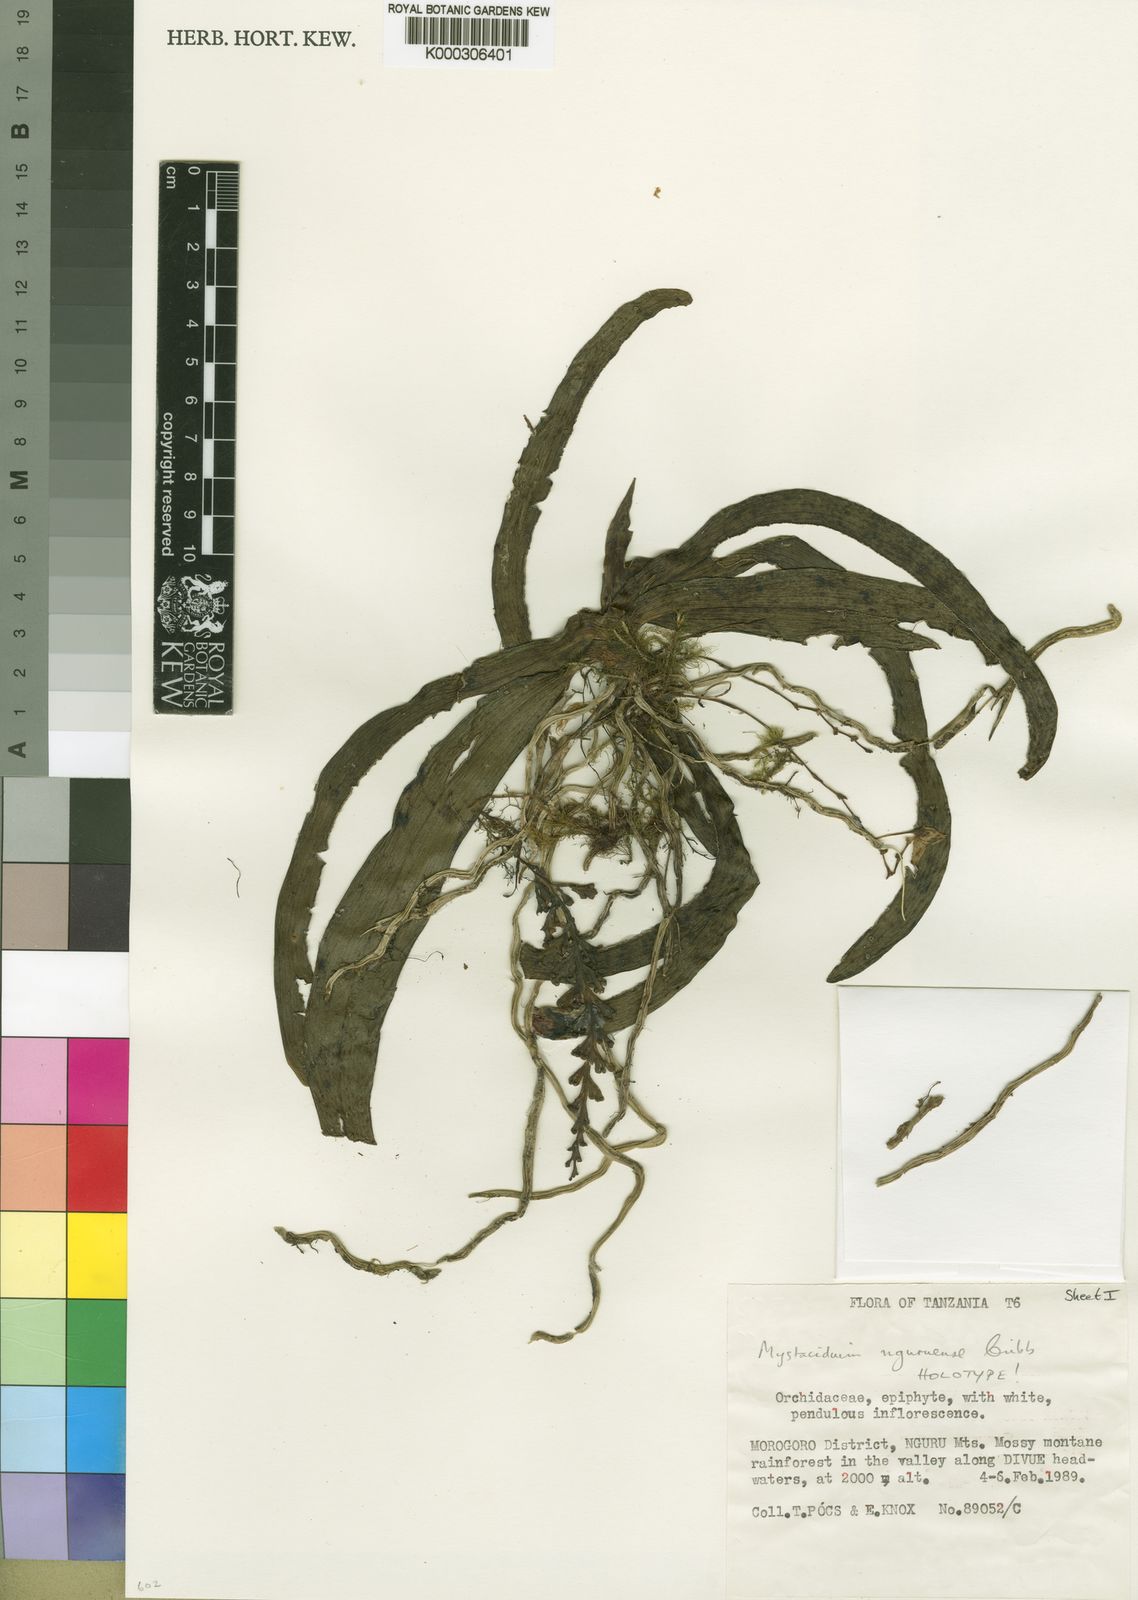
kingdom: Plantae
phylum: Tracheophyta
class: Liliopsida
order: Asparagales
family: Orchidaceae
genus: Mystacidium
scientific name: Mystacidium nguruense
